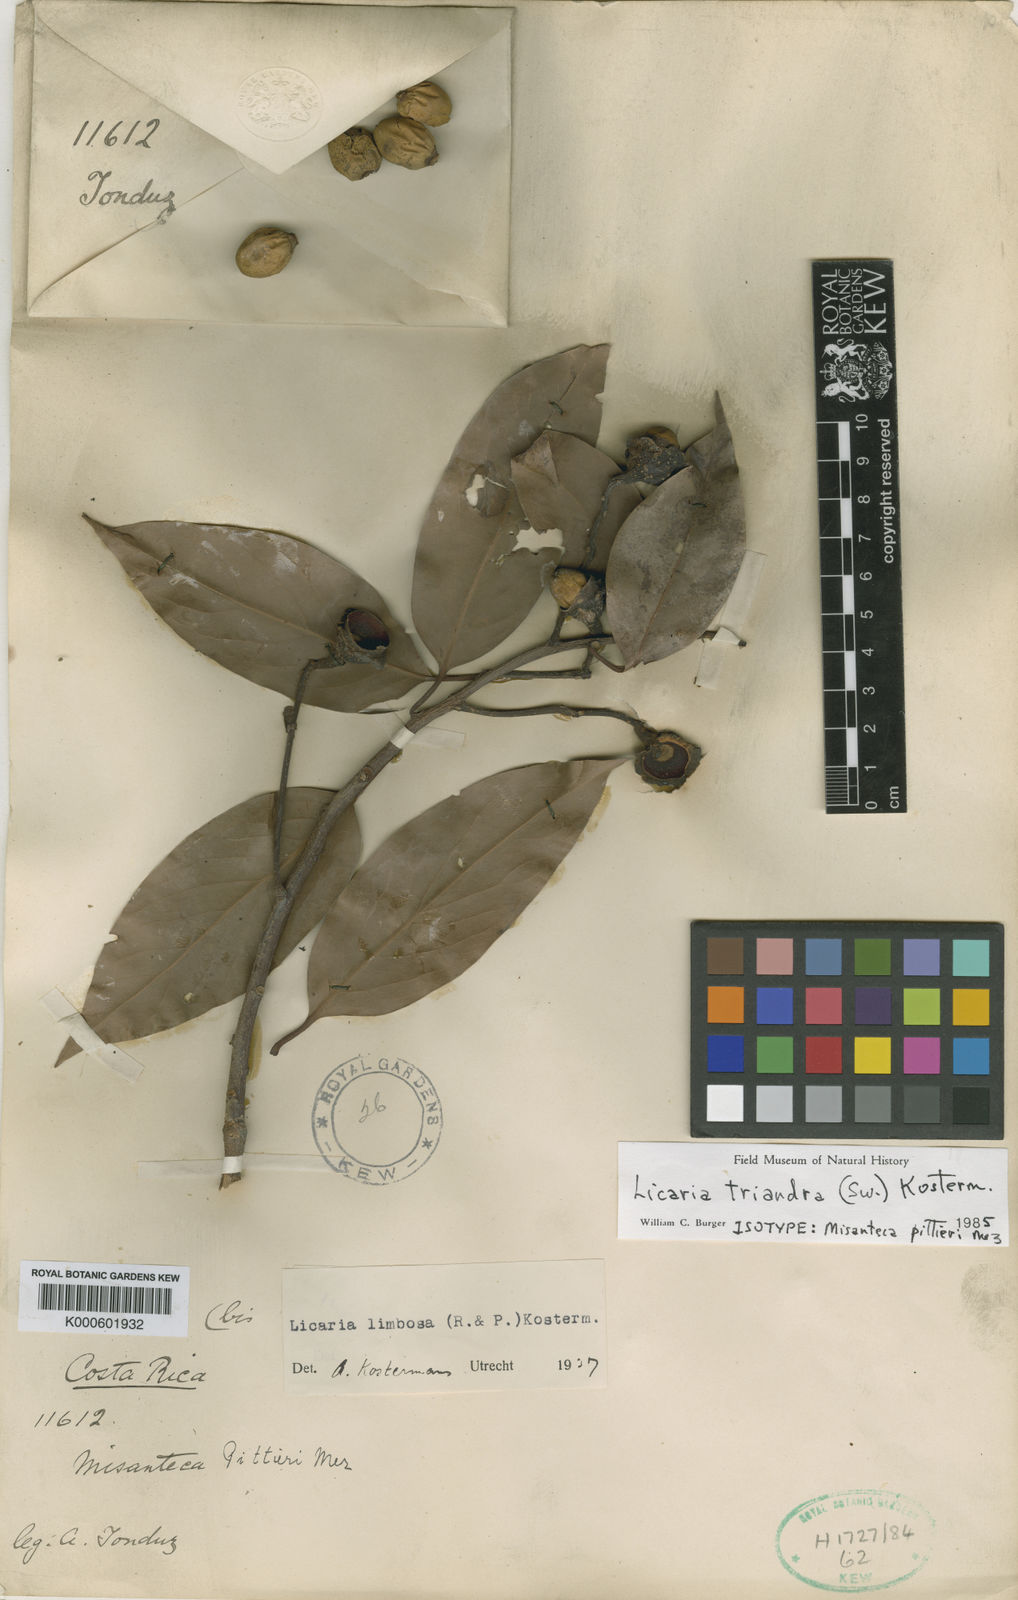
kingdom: Plantae
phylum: Tracheophyta
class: Magnoliopsida
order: Laurales
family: Lauraceae
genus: Licaria
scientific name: Licaria triandra
